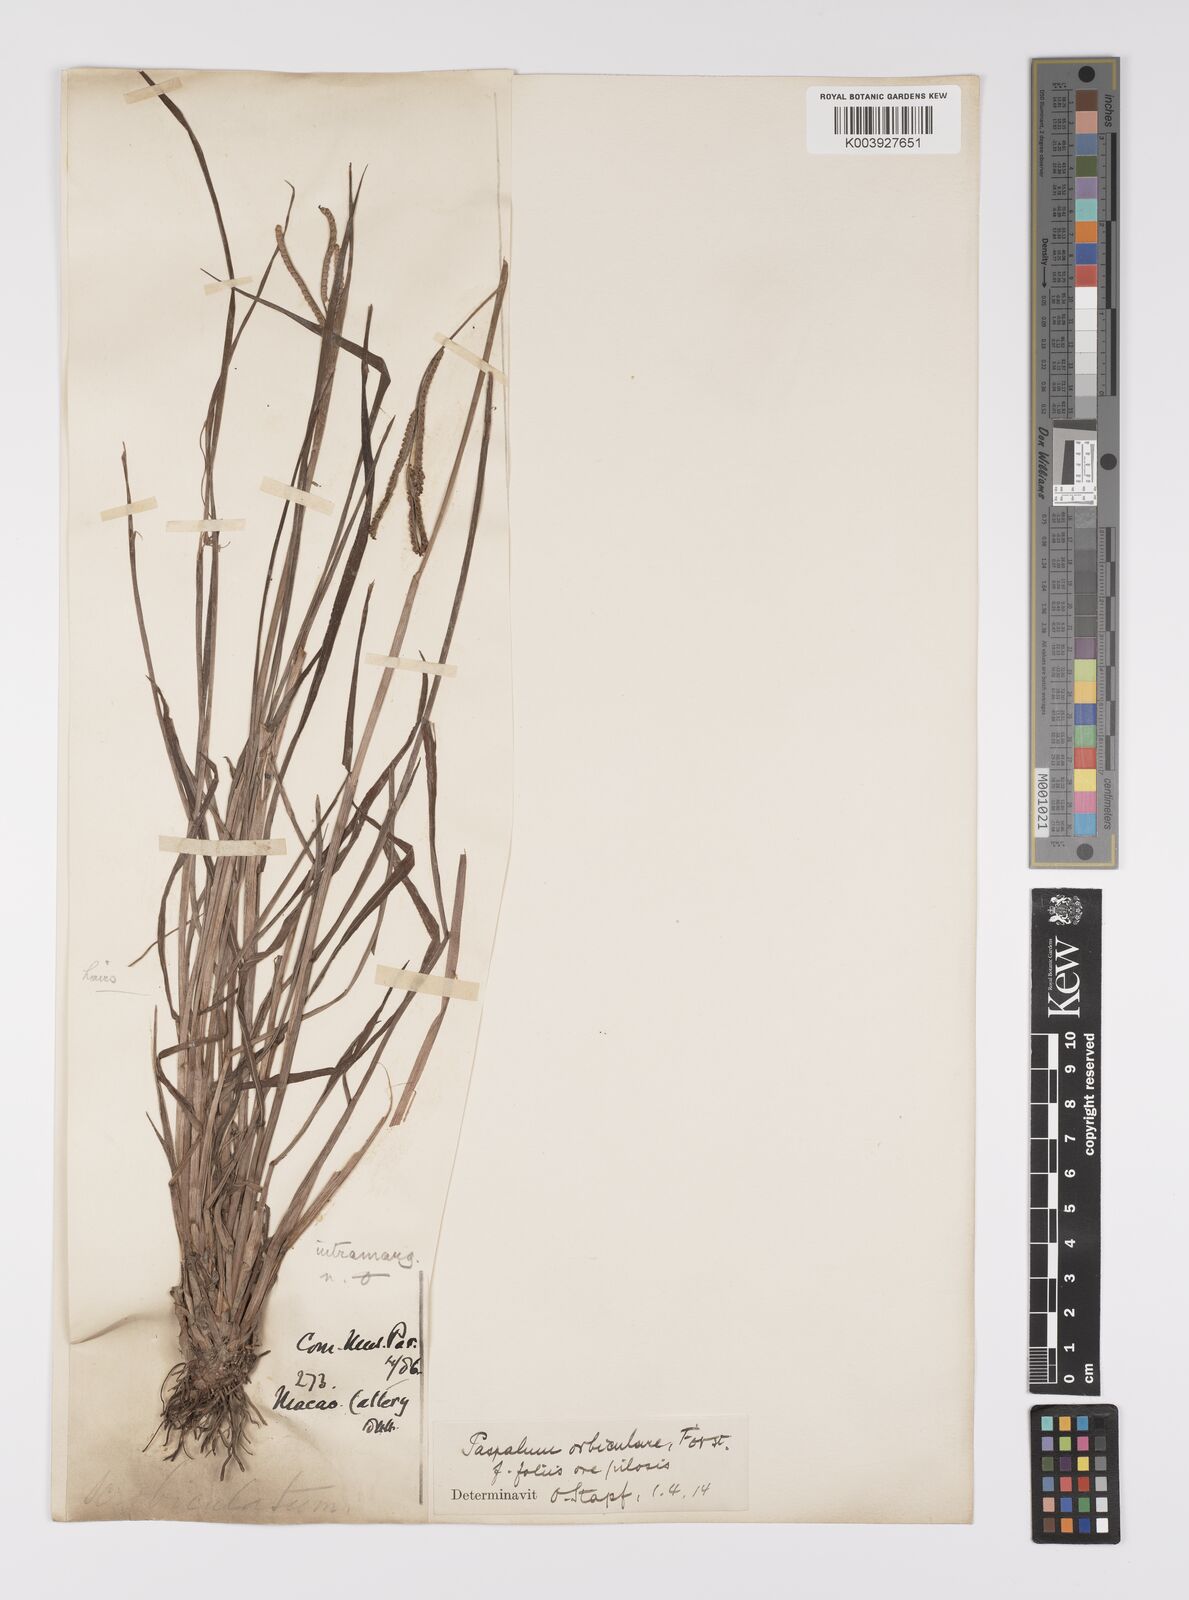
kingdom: Plantae
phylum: Tracheophyta
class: Liliopsida
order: Poales
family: Poaceae
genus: Paspalum
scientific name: Paspalum scrobiculatum
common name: Kodo millet
